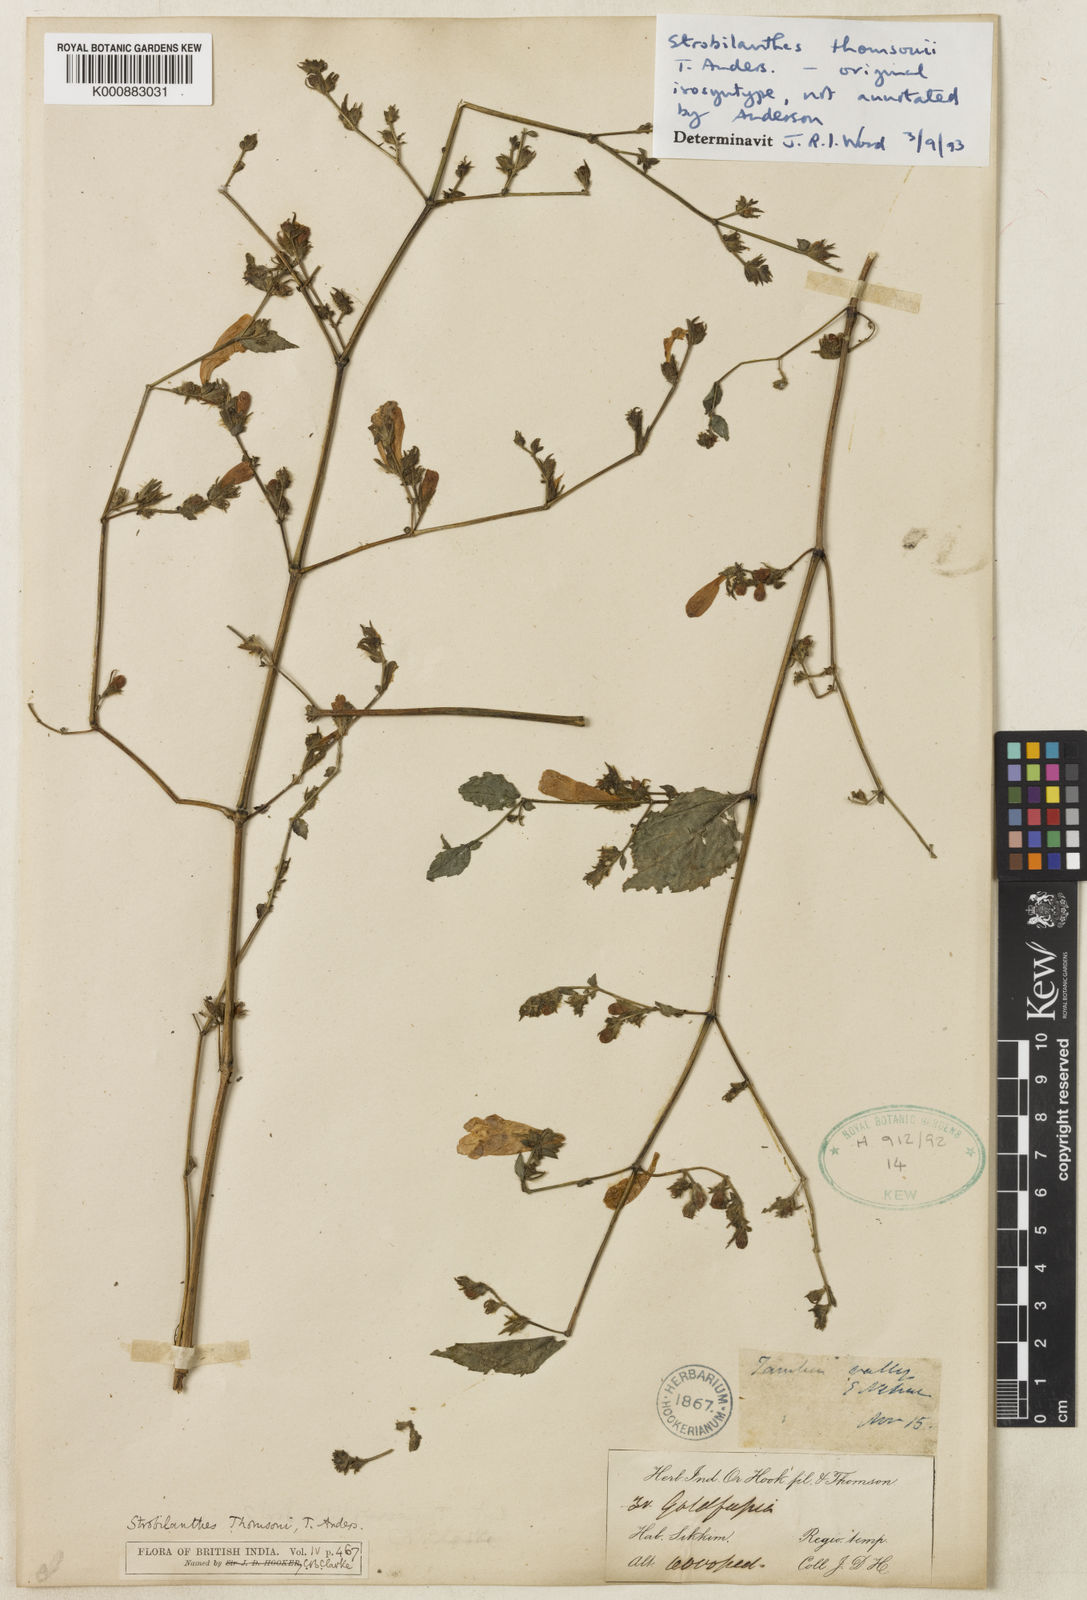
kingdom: Plantae
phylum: Tracheophyta
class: Magnoliopsida
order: Lamiales
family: Acanthaceae
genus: Strobilanthes
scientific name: Strobilanthes thomsonii
